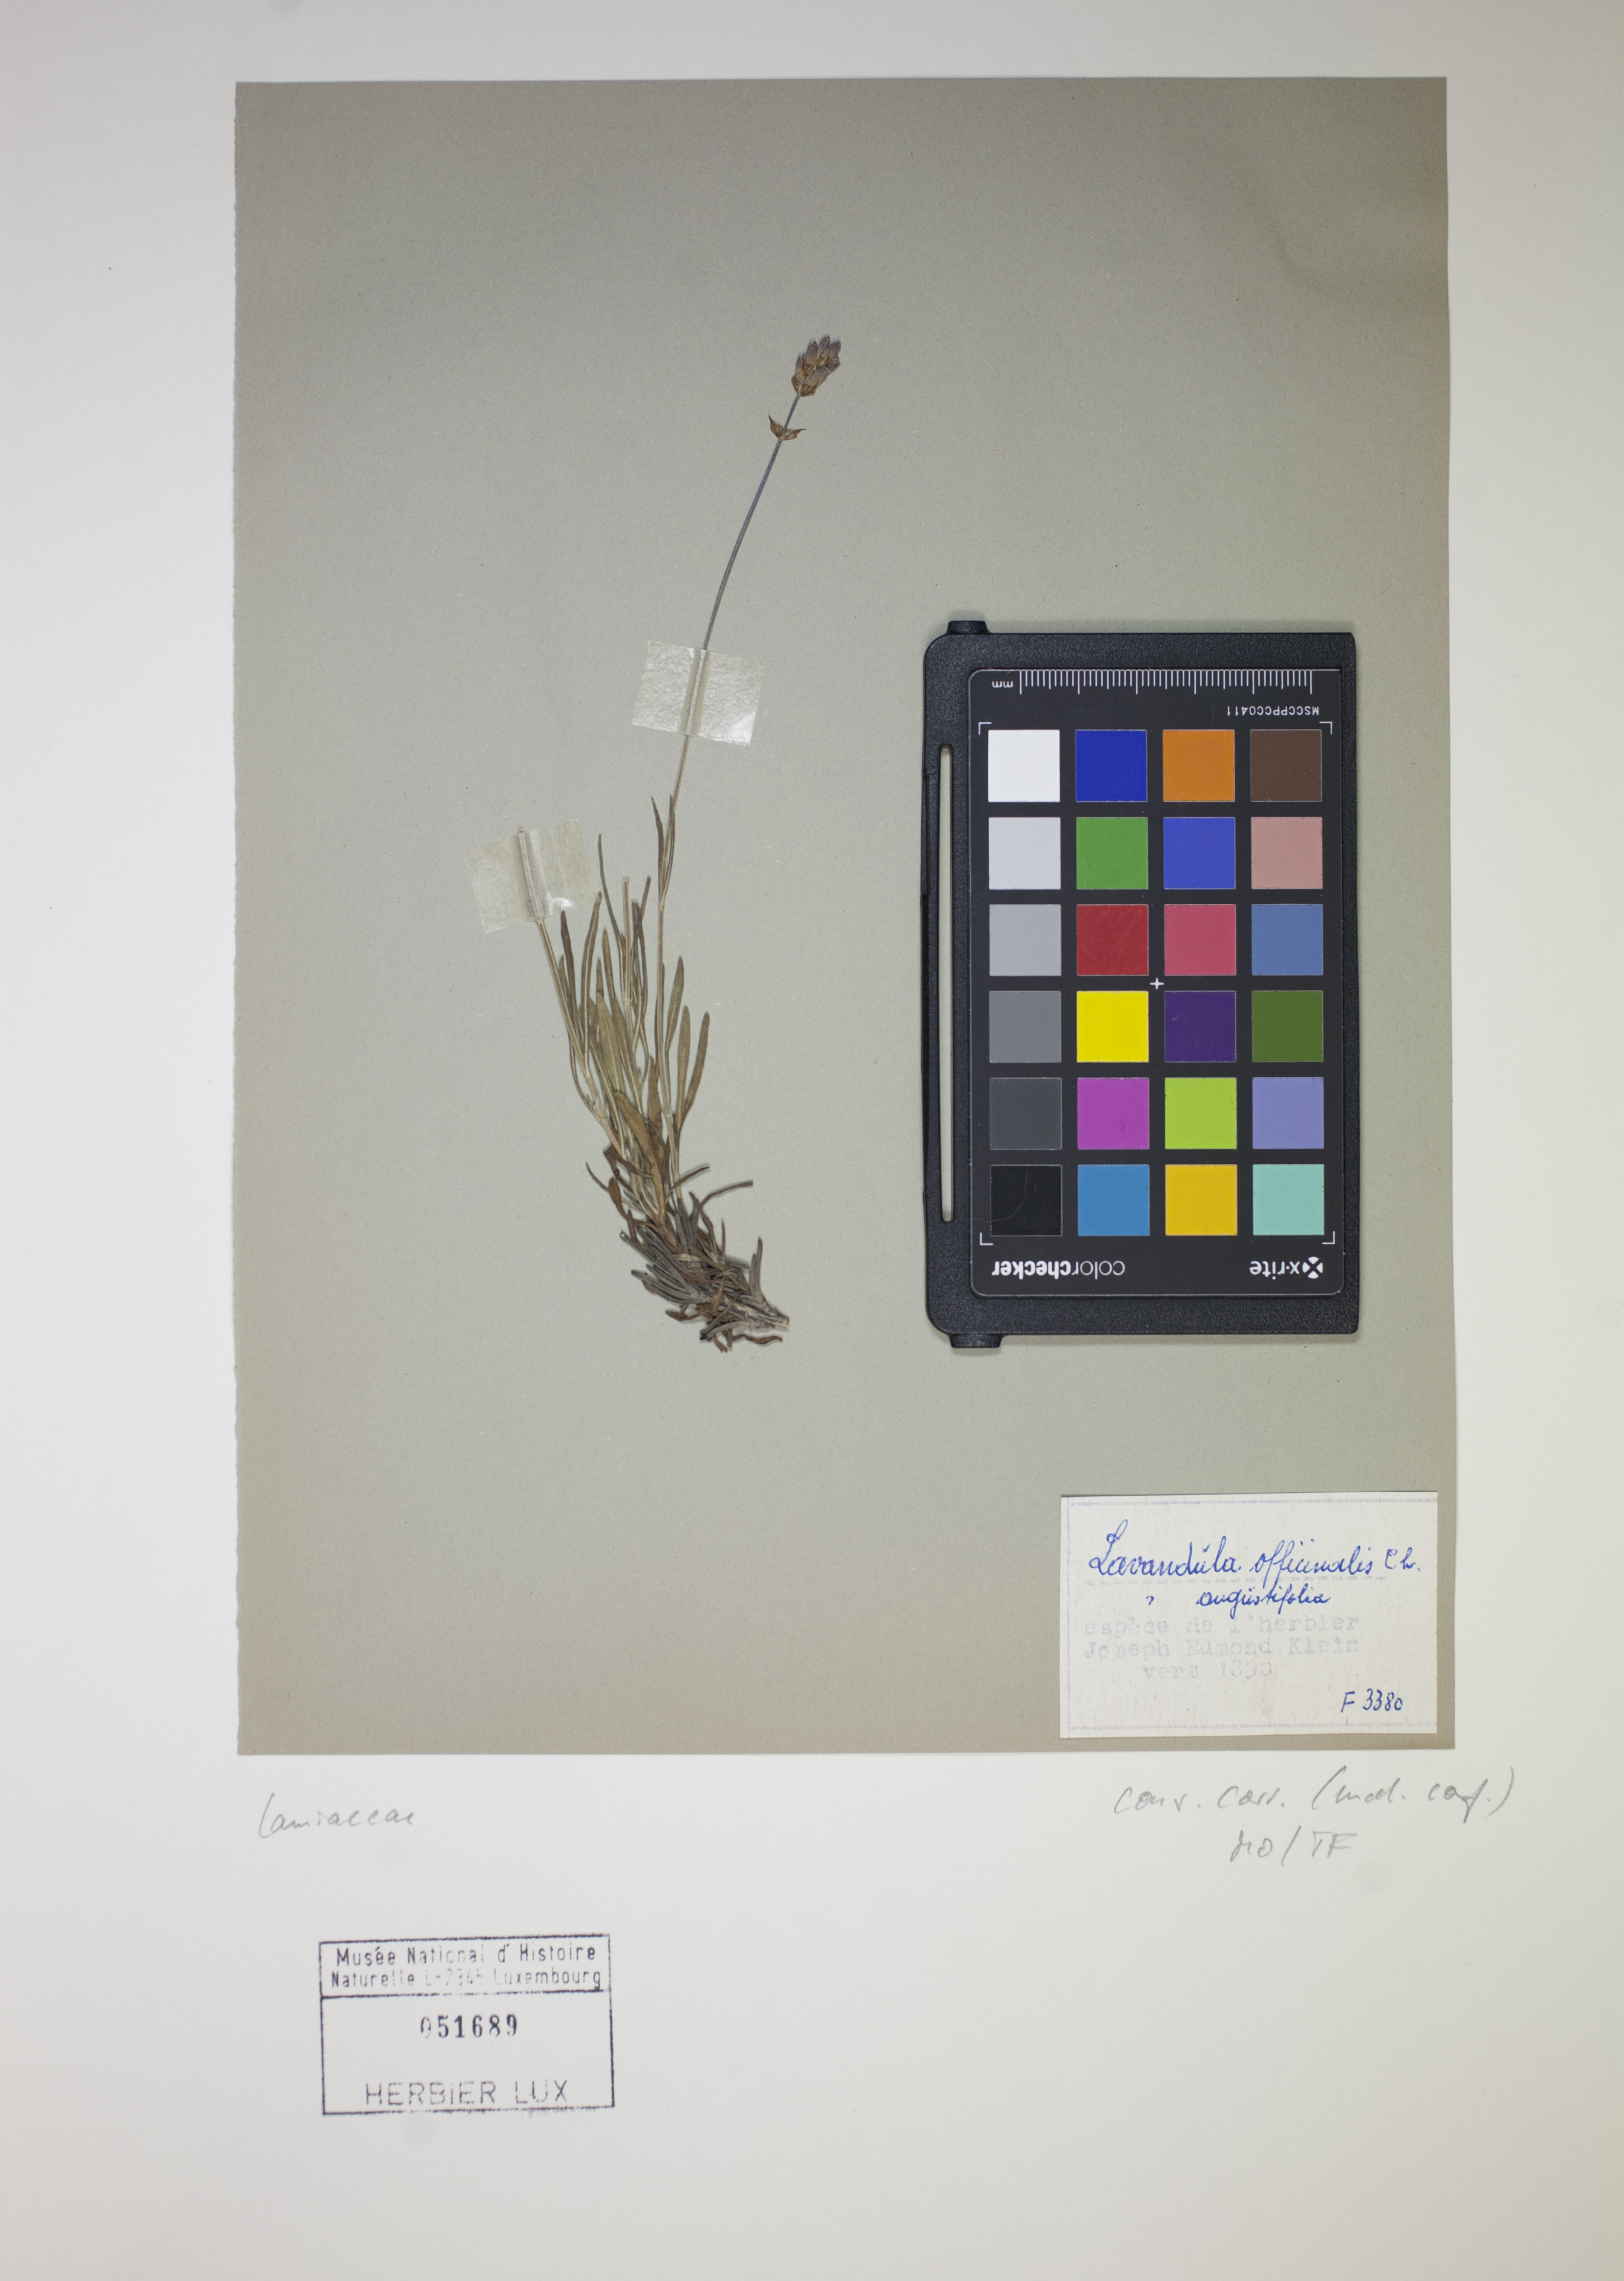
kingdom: Plantae
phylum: Tracheophyta
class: Magnoliopsida
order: Lamiales
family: Lamiaceae
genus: Lavandula
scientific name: Lavandula angustifolia
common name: Garden lavender
